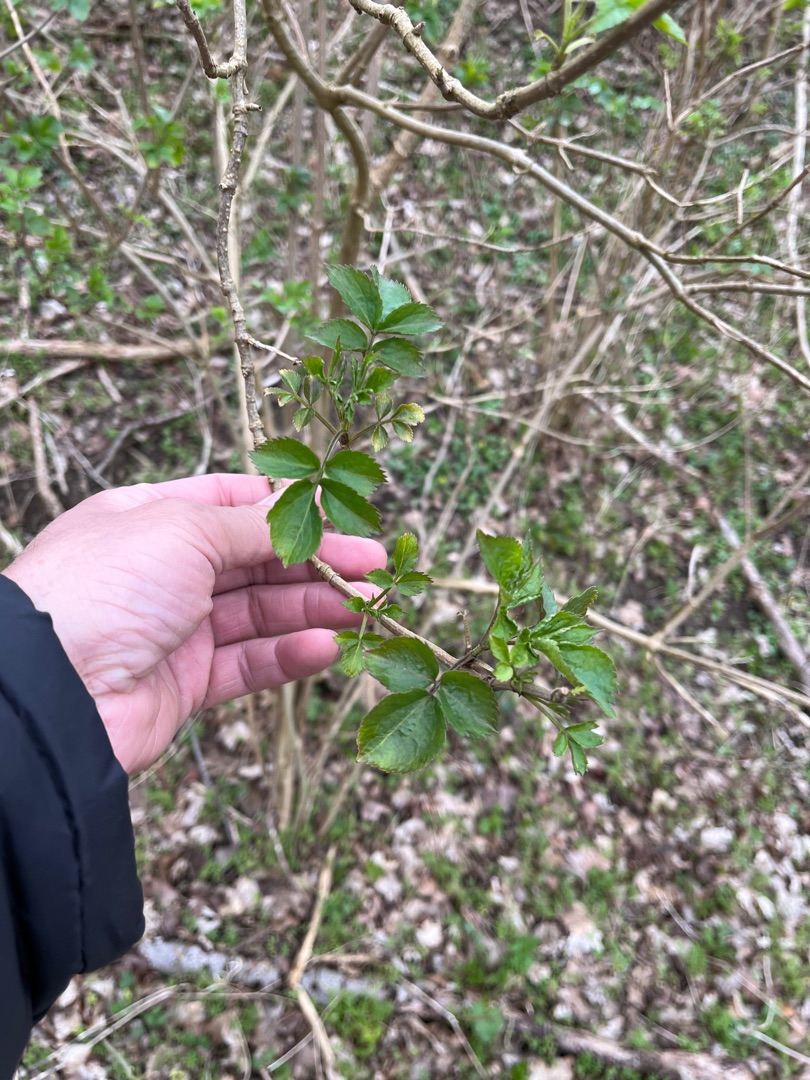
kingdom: Plantae
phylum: Tracheophyta
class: Magnoliopsida
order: Dipsacales
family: Viburnaceae
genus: Sambucus
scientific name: Sambucus nigra
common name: Almindelig hyld
